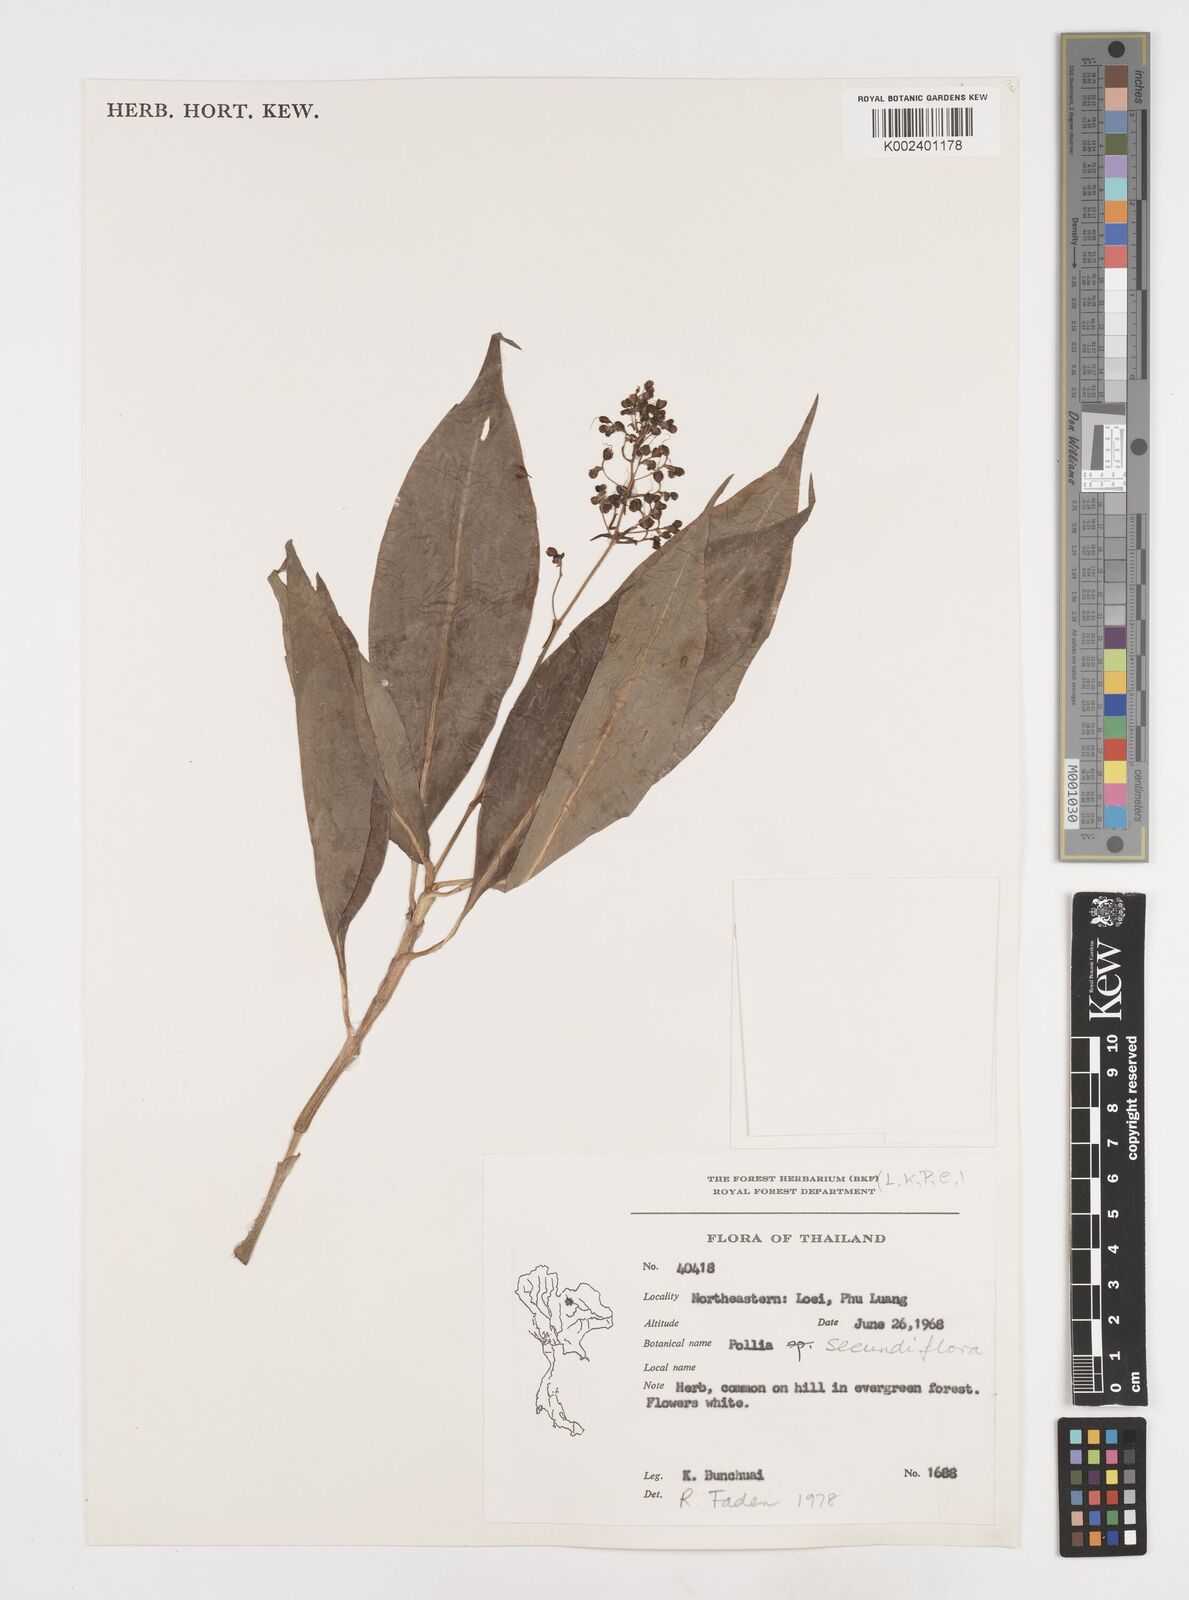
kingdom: Plantae
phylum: Tracheophyta
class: Liliopsida
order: Commelinales
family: Commelinaceae
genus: Pollia
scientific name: Pollia secundiflora
